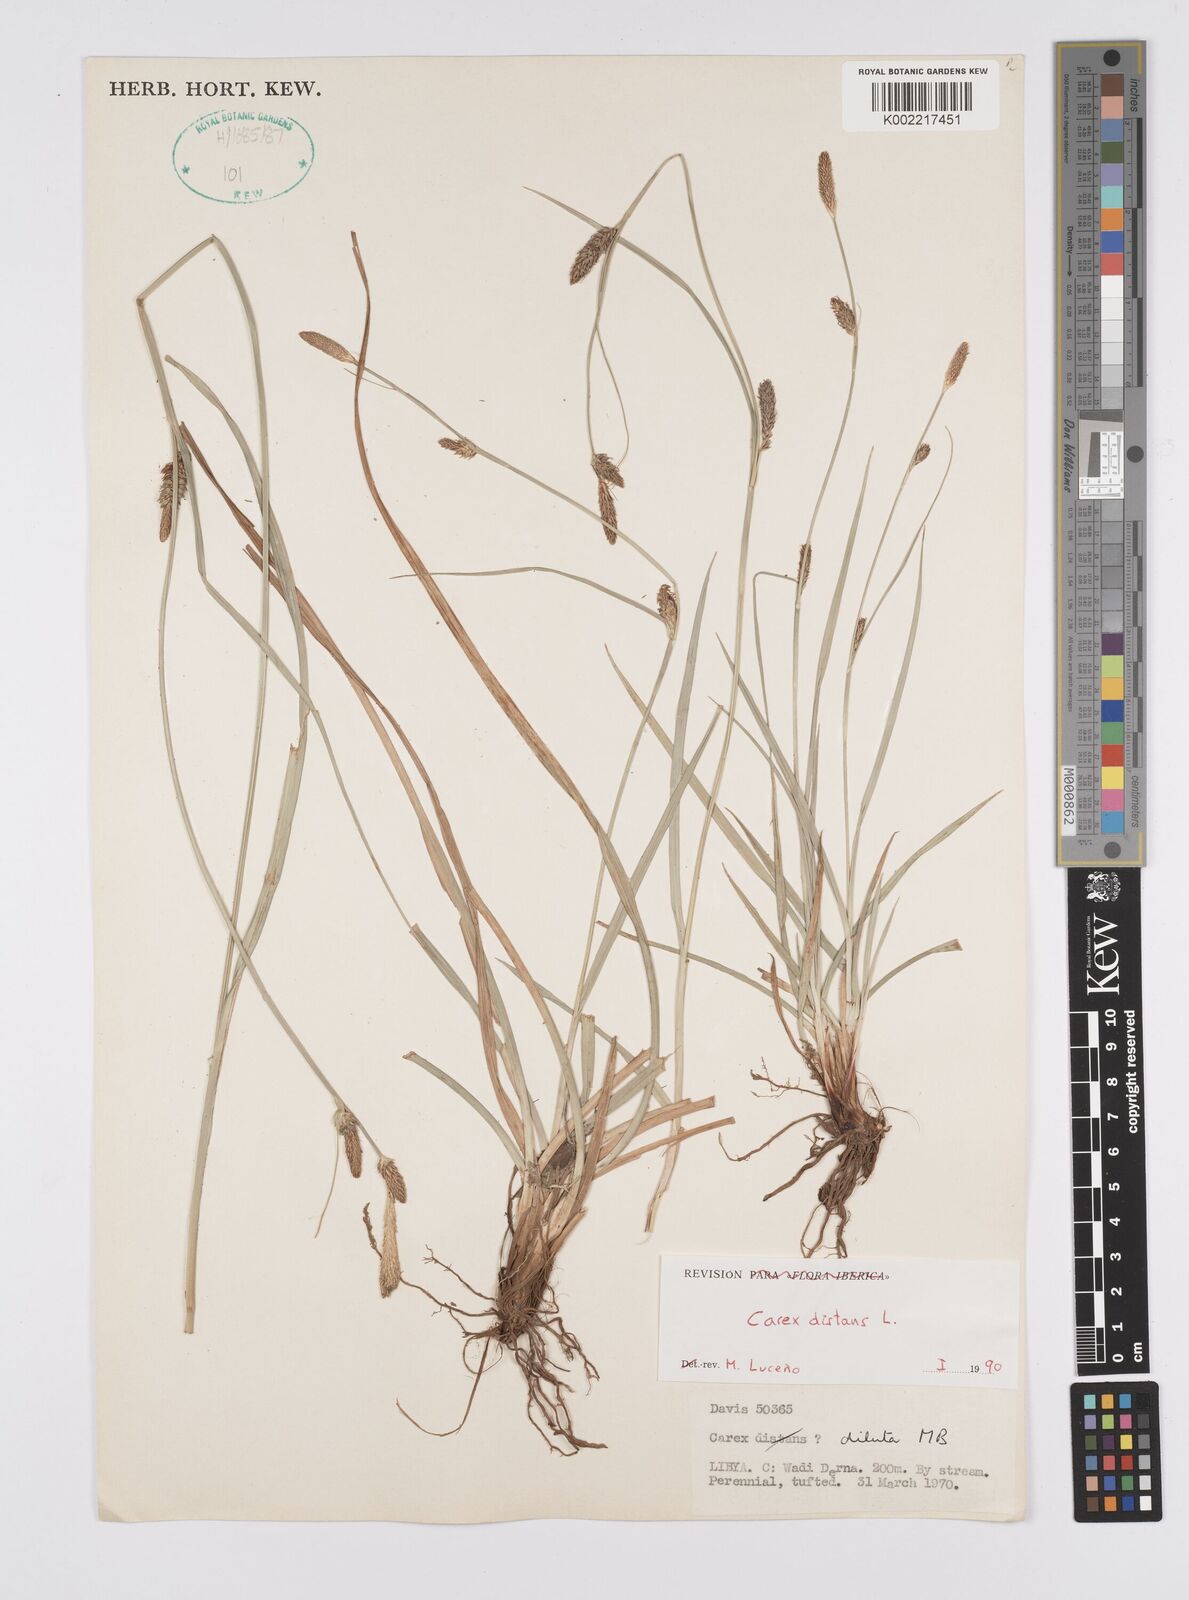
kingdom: Plantae
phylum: Tracheophyta
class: Liliopsida
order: Poales
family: Cyperaceae
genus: Carex
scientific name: Carex distans
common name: Distant sedge
